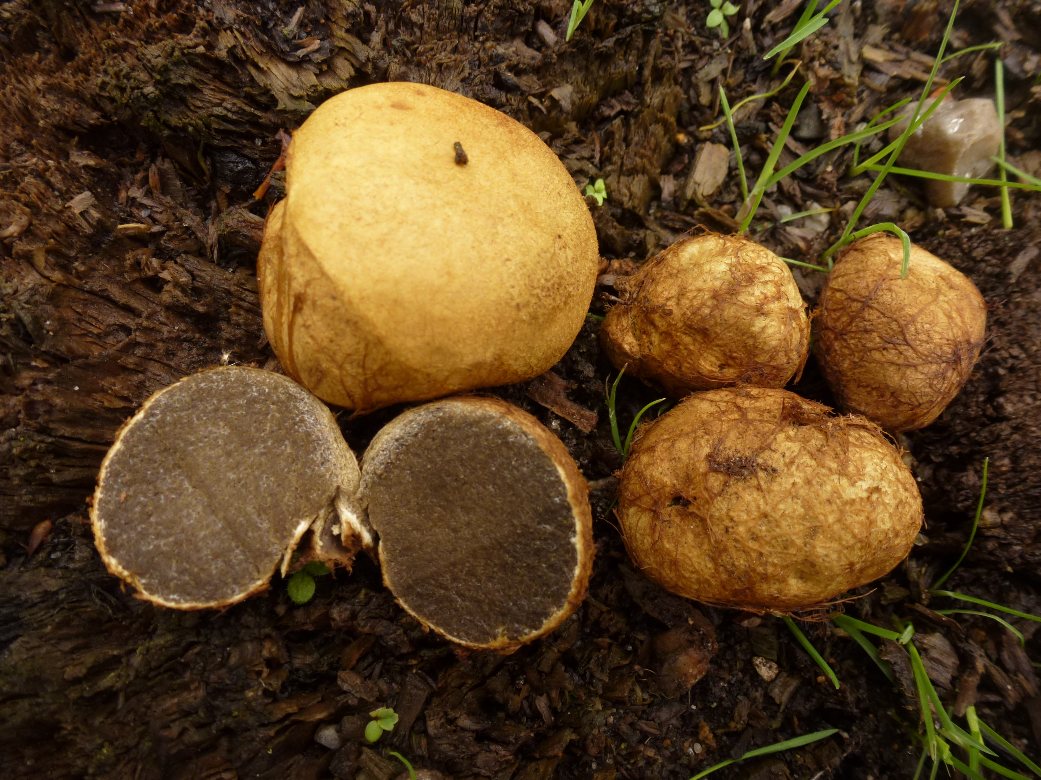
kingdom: Fungi
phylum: Basidiomycota
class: Agaricomycetes
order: Boletales
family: Rhizopogonaceae
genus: Rhizopogon
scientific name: Rhizopogon obtextus
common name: gul skægtrøffel
